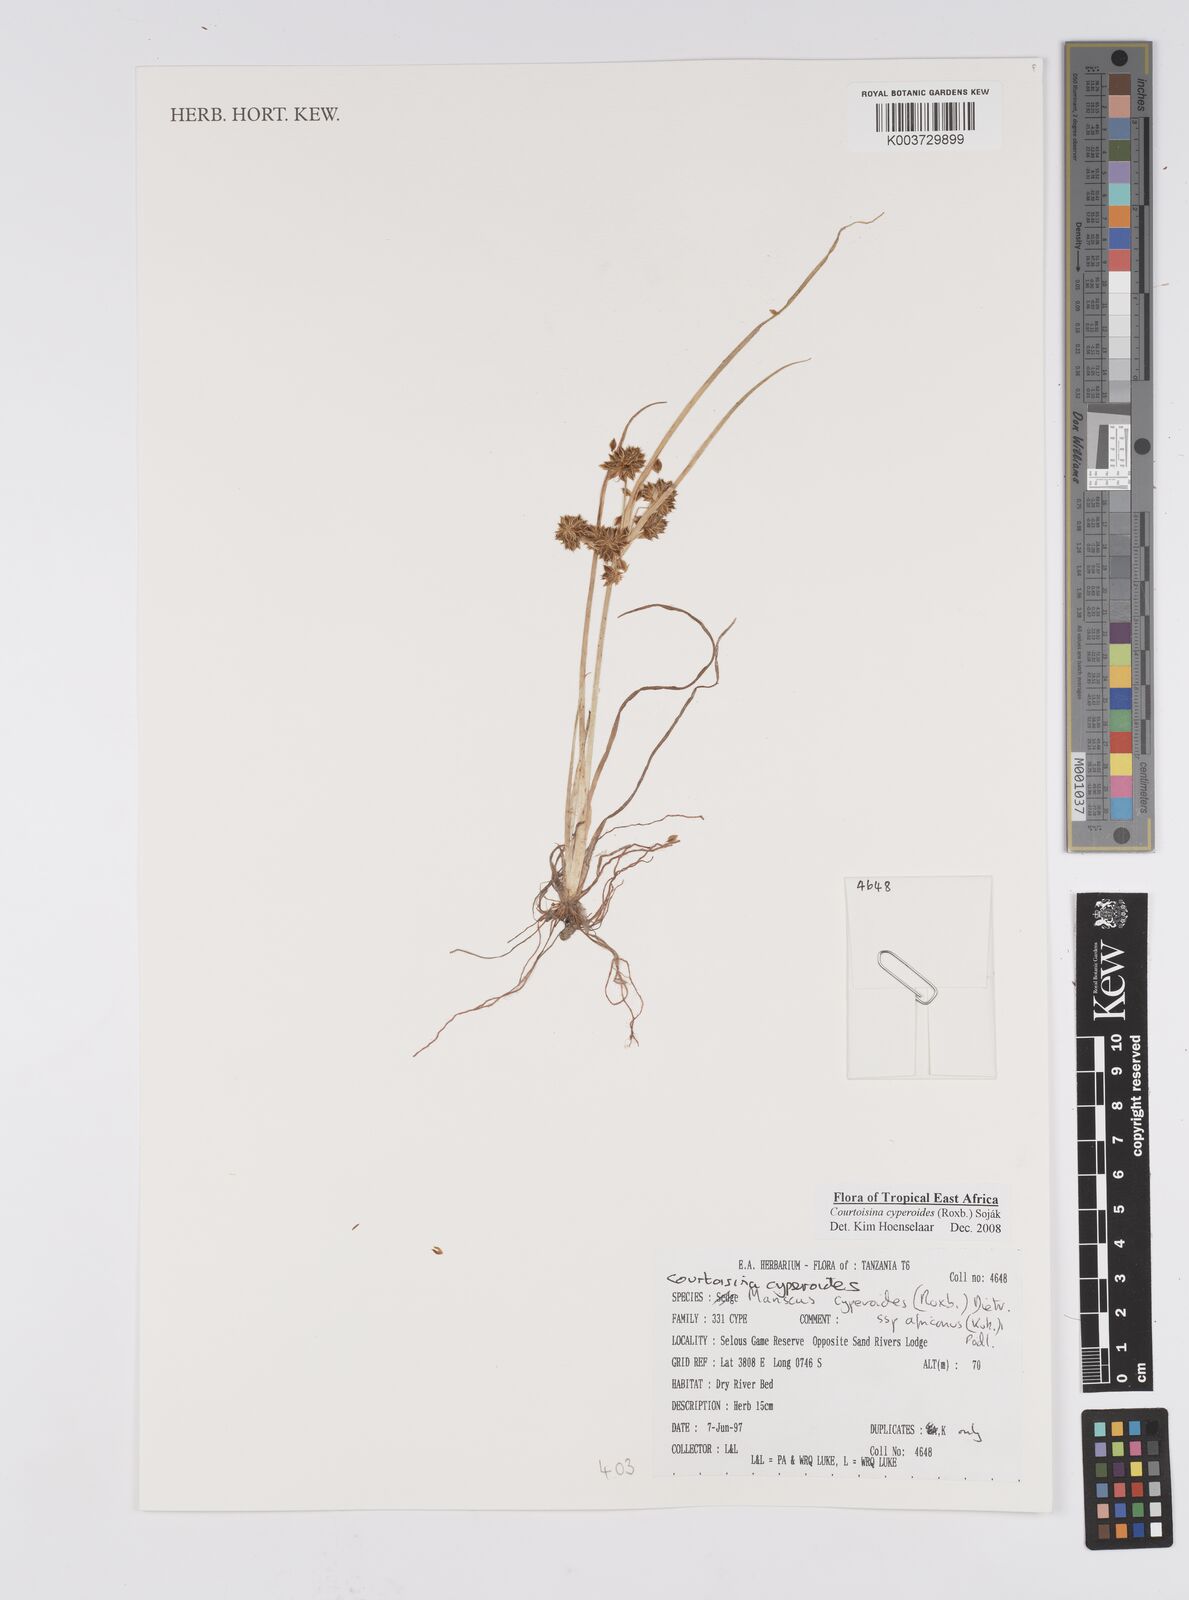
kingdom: Plantae
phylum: Tracheophyta
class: Liliopsida
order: Poales
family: Cyperaceae
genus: Cyperus
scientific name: Cyperus cyperoides
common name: Pacific island flat sedge
